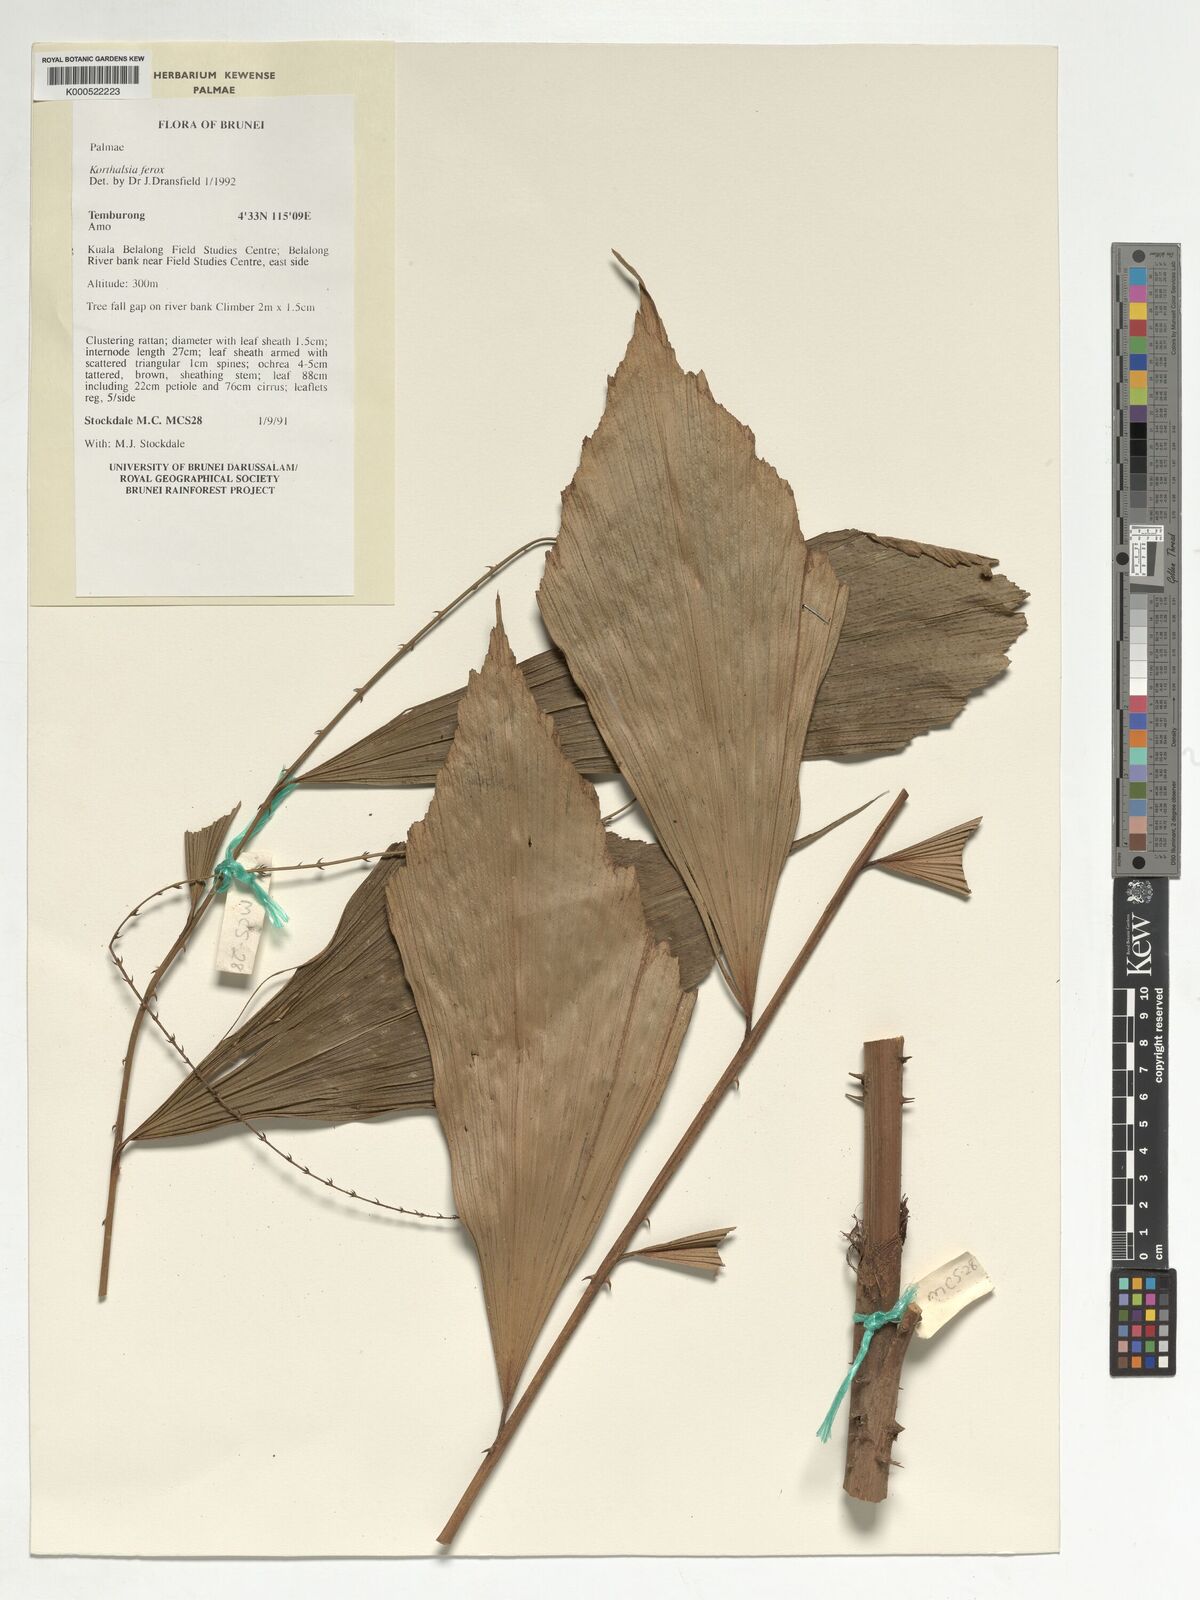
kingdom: Plantae
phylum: Tracheophyta
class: Liliopsida
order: Arecales
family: Arecaceae
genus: Korthalsia
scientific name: Korthalsia ferox
